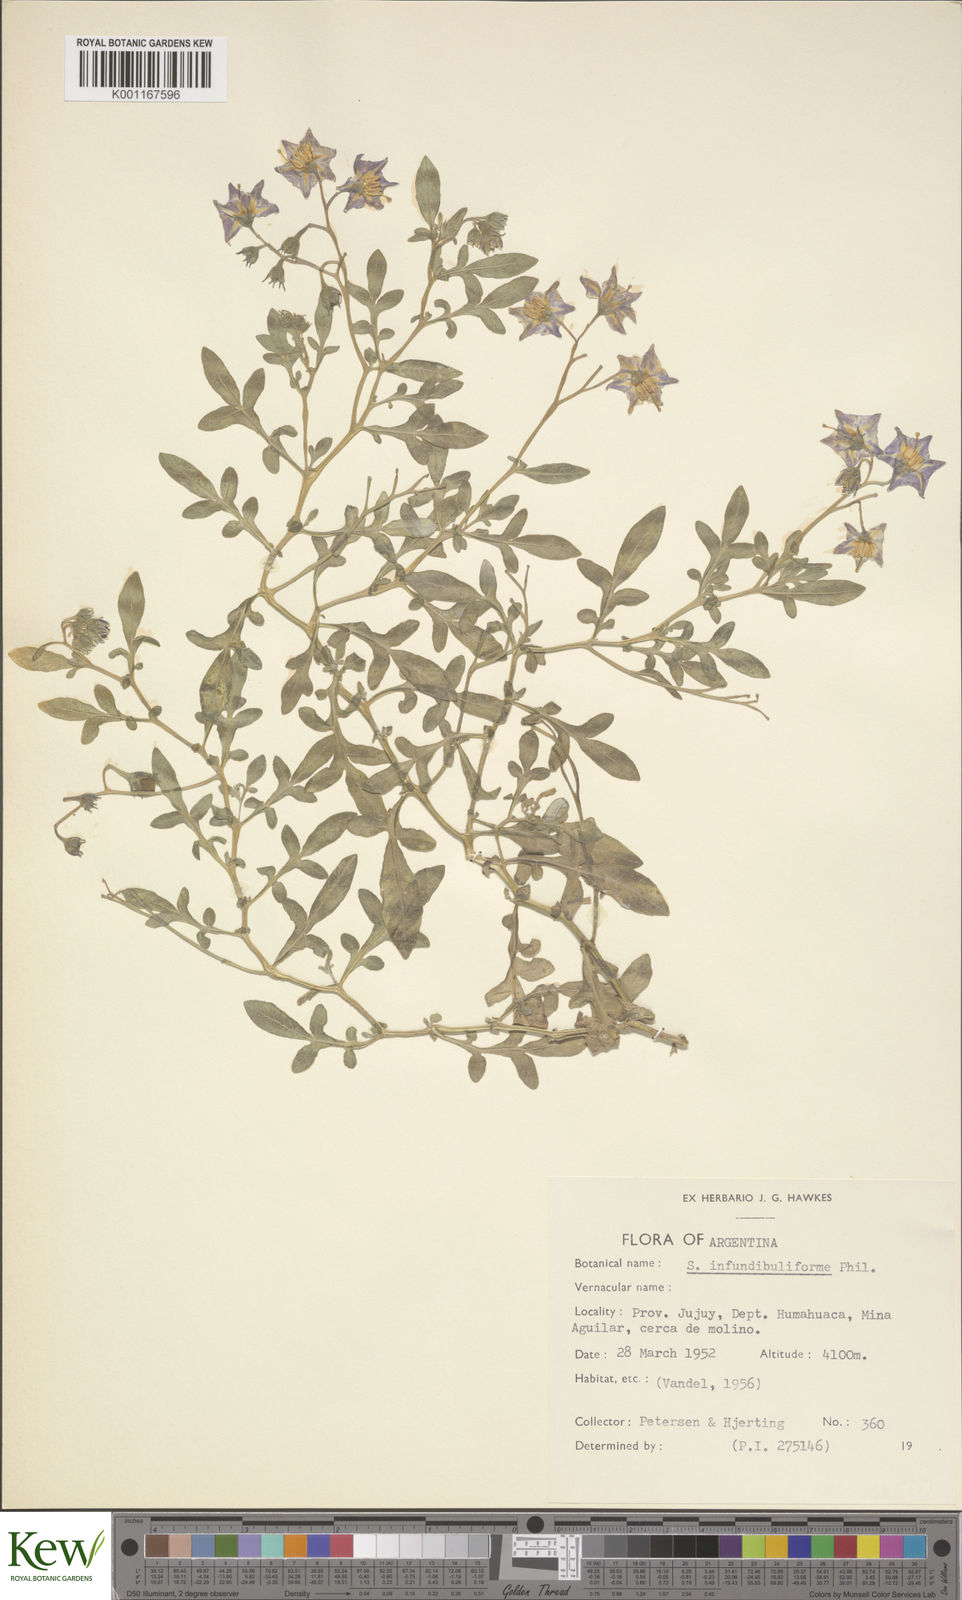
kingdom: Plantae
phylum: Tracheophyta
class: Magnoliopsida
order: Solanales
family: Solanaceae
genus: Solanum
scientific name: Solanum infundibuliforme
